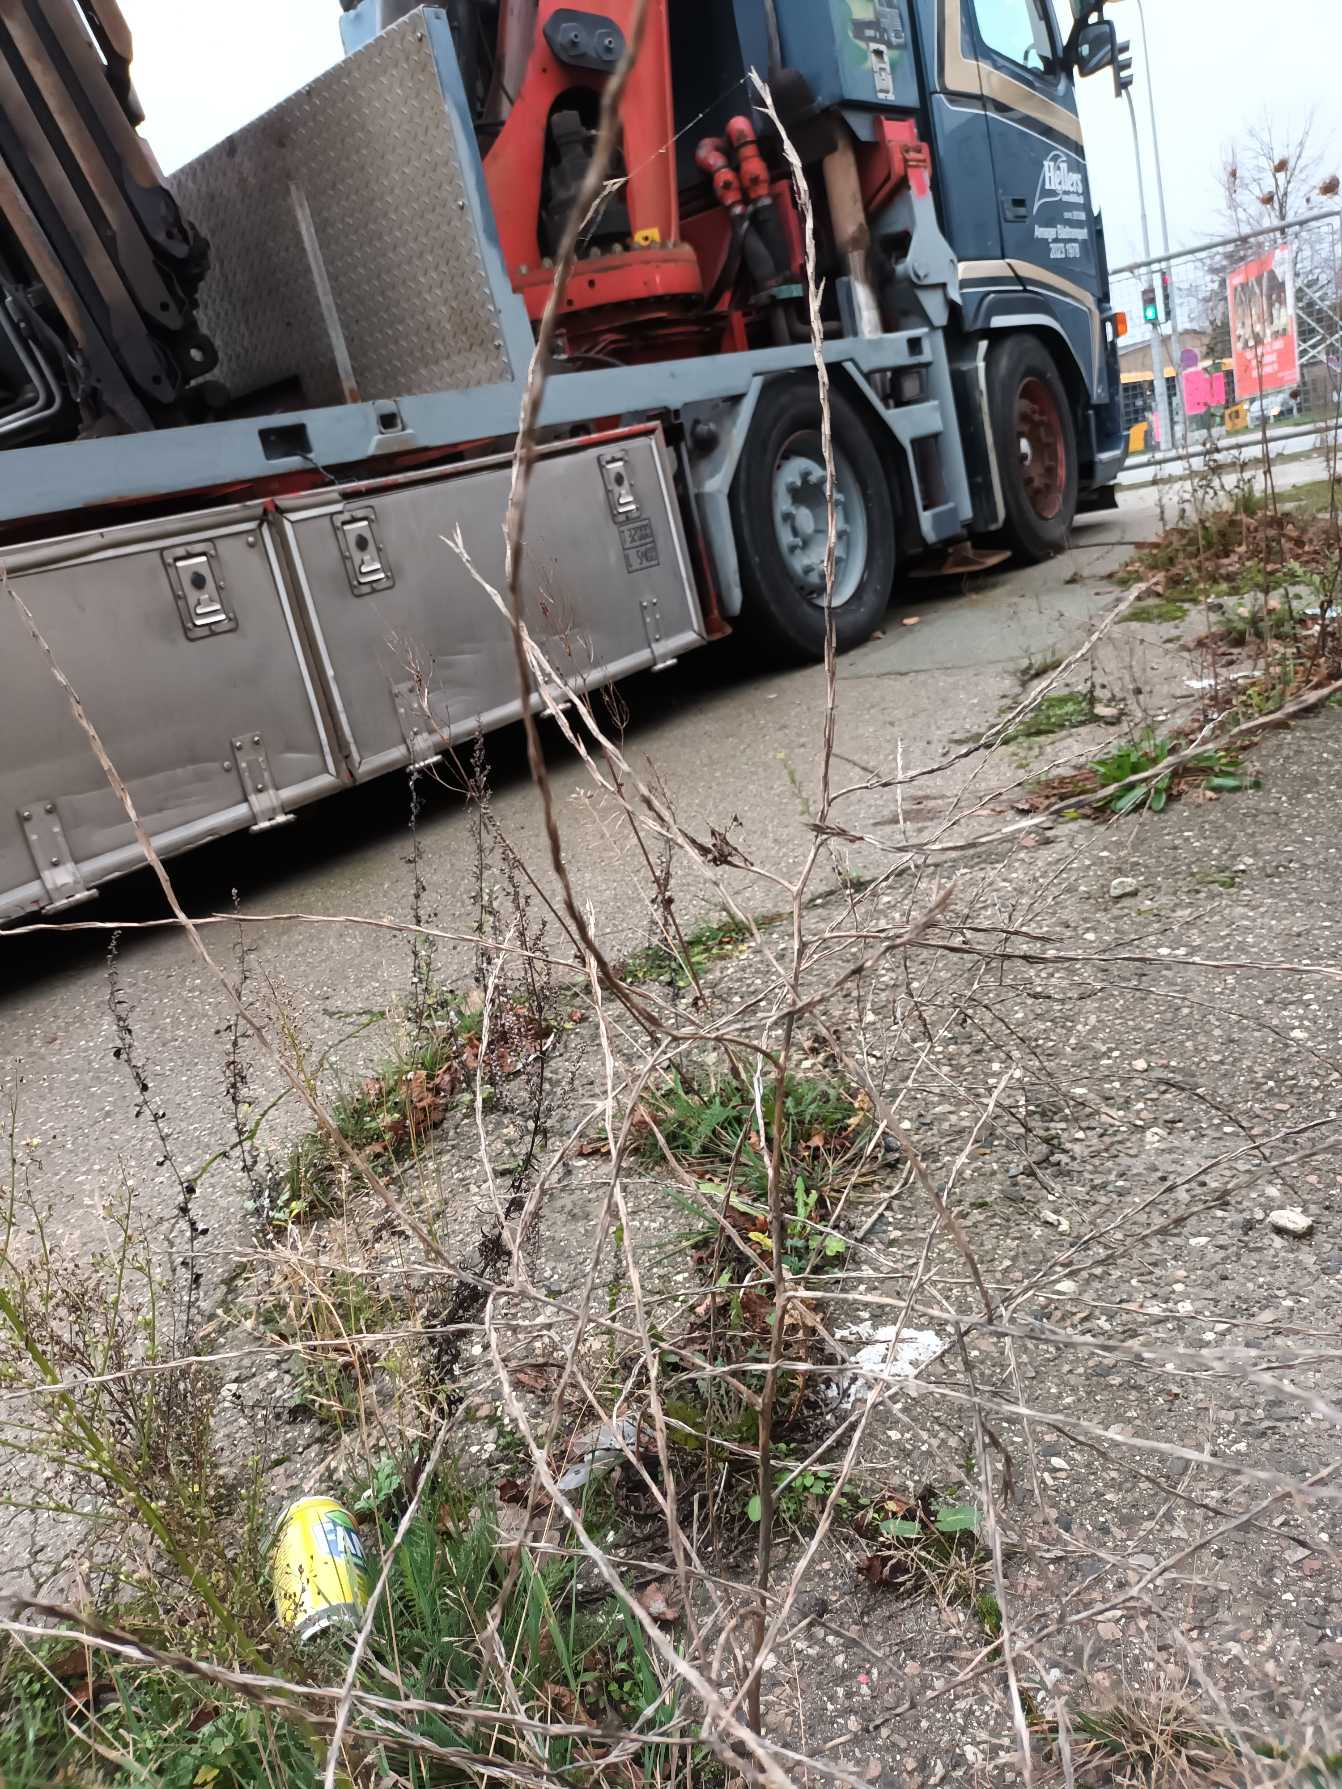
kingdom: Plantae
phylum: Tracheophyta
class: Magnoliopsida
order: Brassicales
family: Brassicaceae
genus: Sisymbrium
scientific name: Sisymbrium officinale
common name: Rank vejsennep
